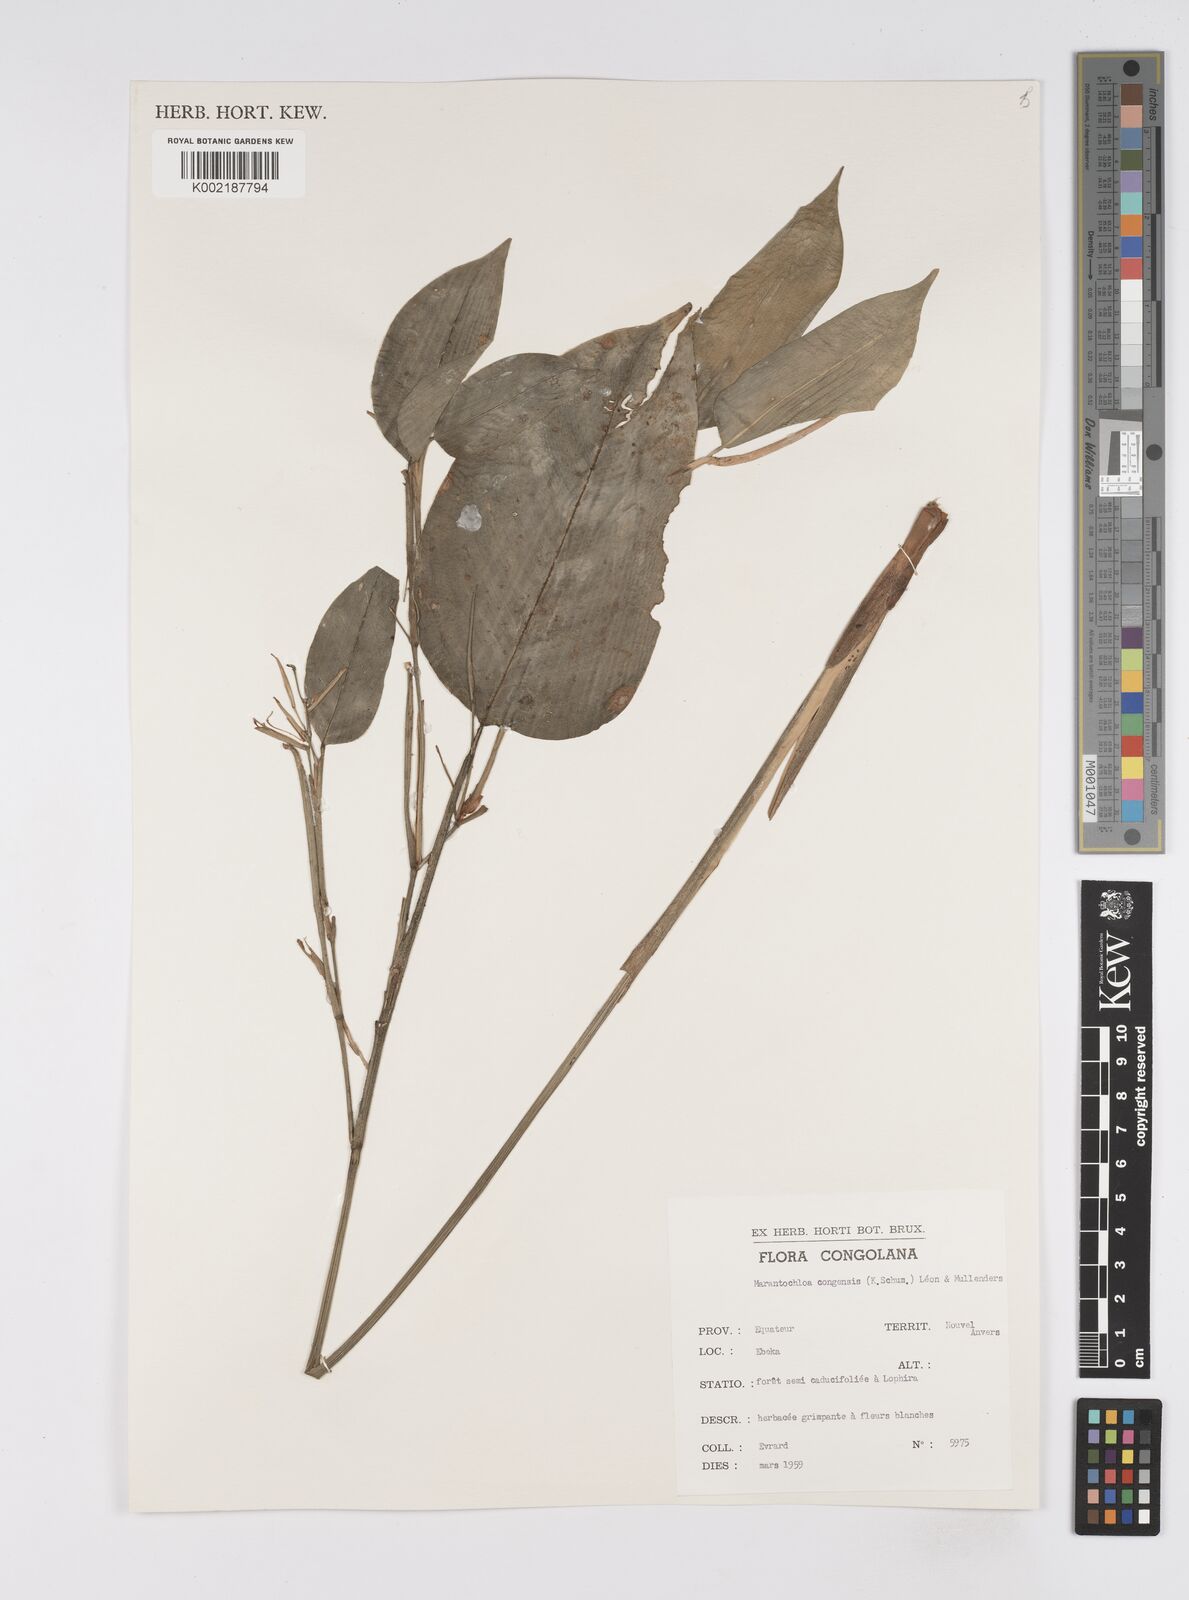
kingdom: Plantae
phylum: Tracheophyta
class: Liliopsida
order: Zingiberales
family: Marantaceae
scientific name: Marantaceae
